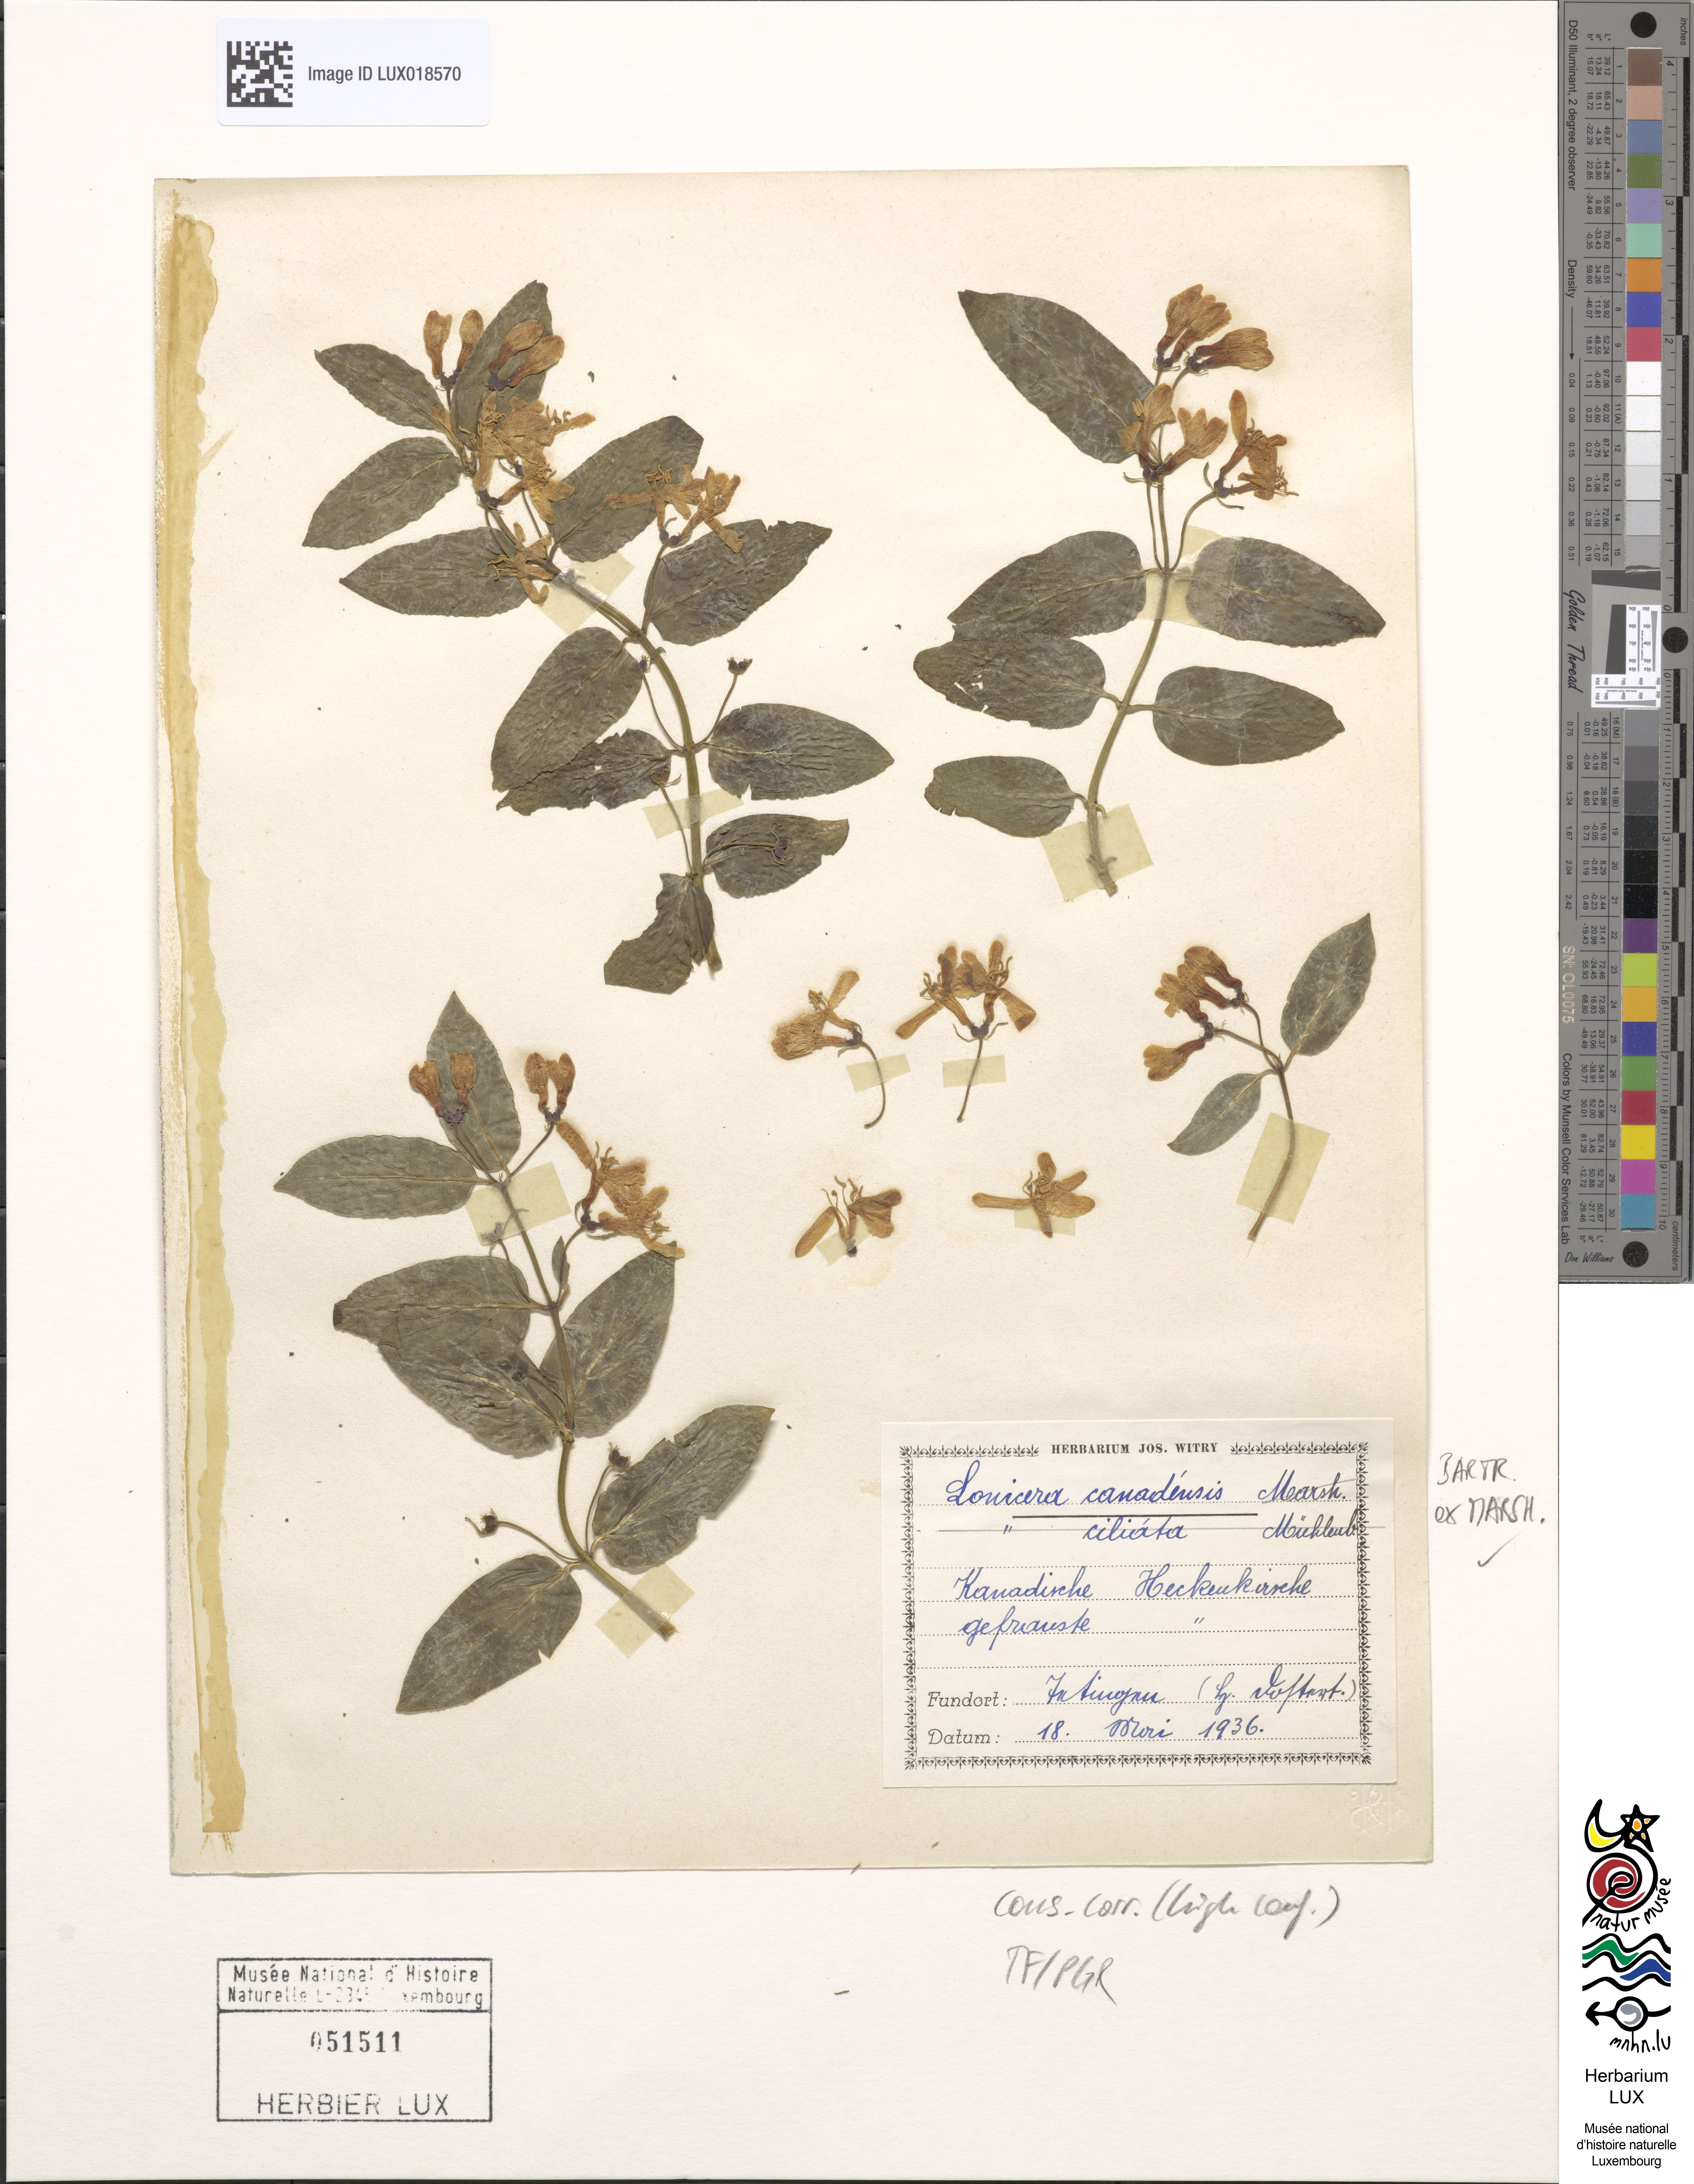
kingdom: Plantae
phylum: Tracheophyta
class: Magnoliopsida
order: Dipsacales
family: Caprifoliaceae
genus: Lonicera
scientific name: Lonicera canadensis
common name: American fly-honeysuckle
